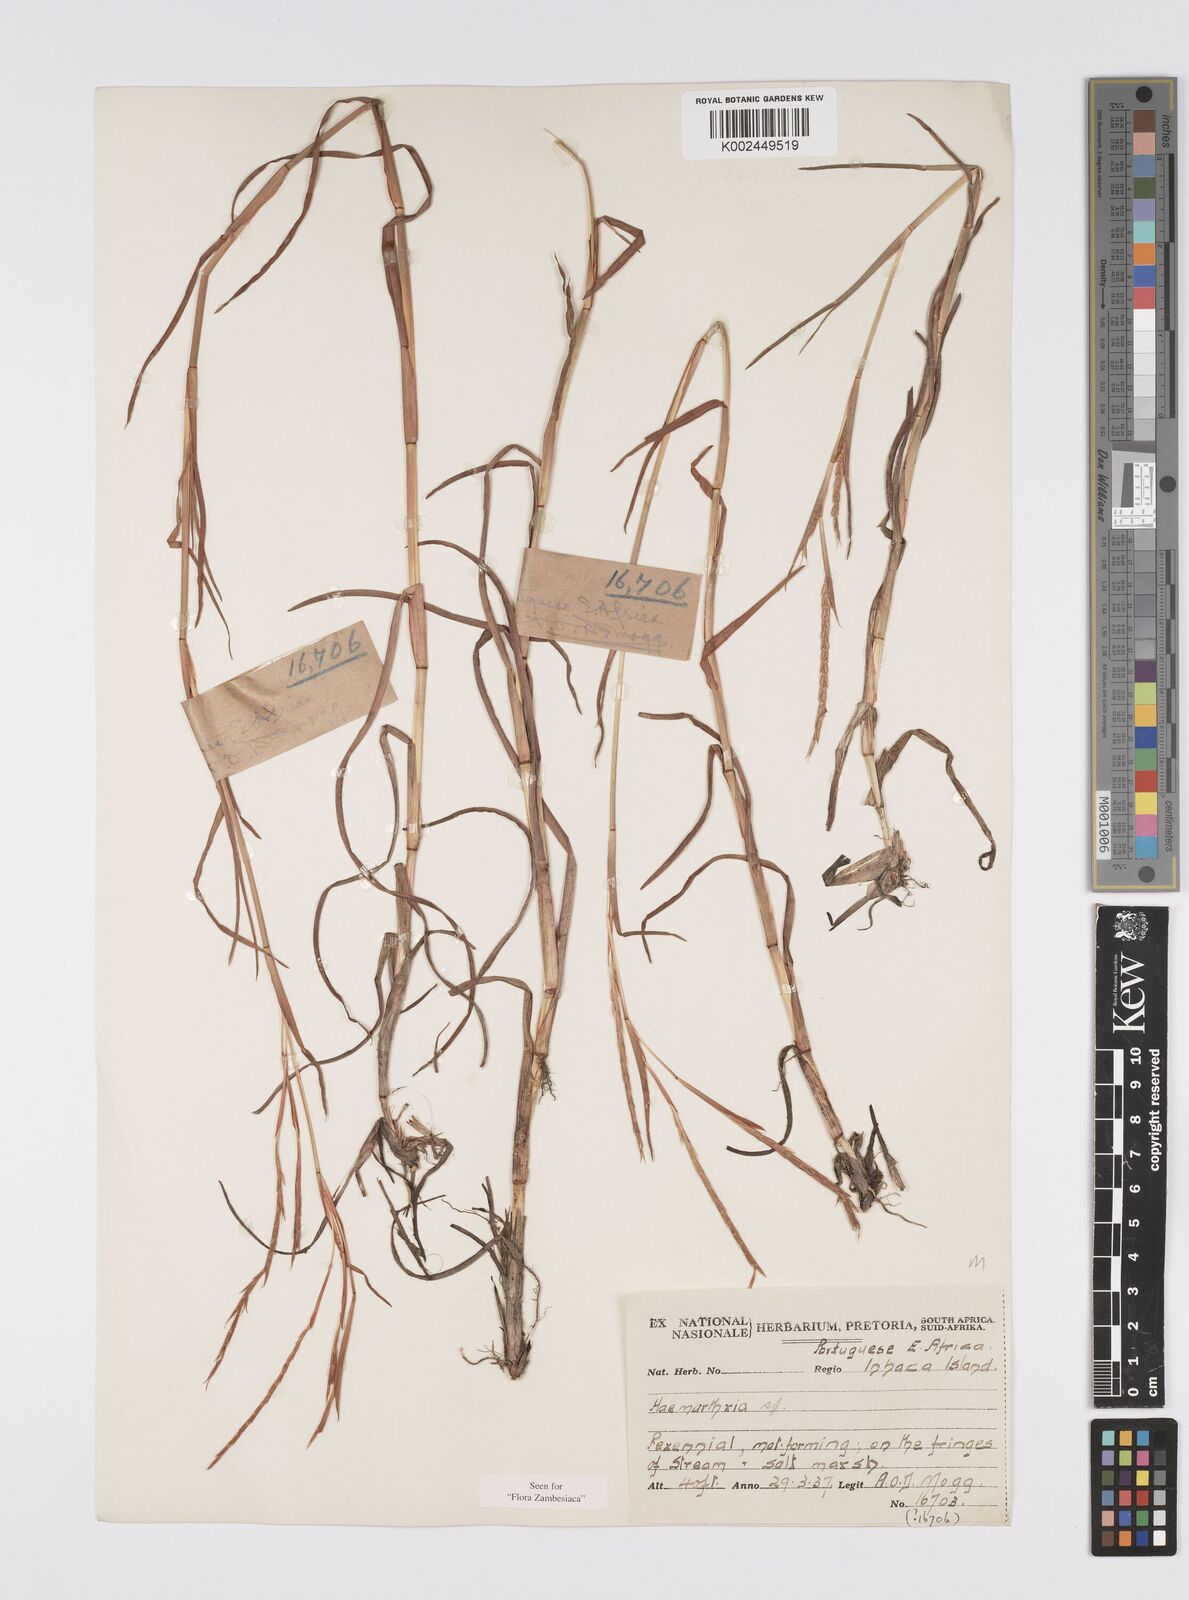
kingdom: Plantae
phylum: Tracheophyta
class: Liliopsida
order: Poales
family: Poaceae
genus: Hemarthria
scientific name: Hemarthria altissima
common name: African jointgrass
